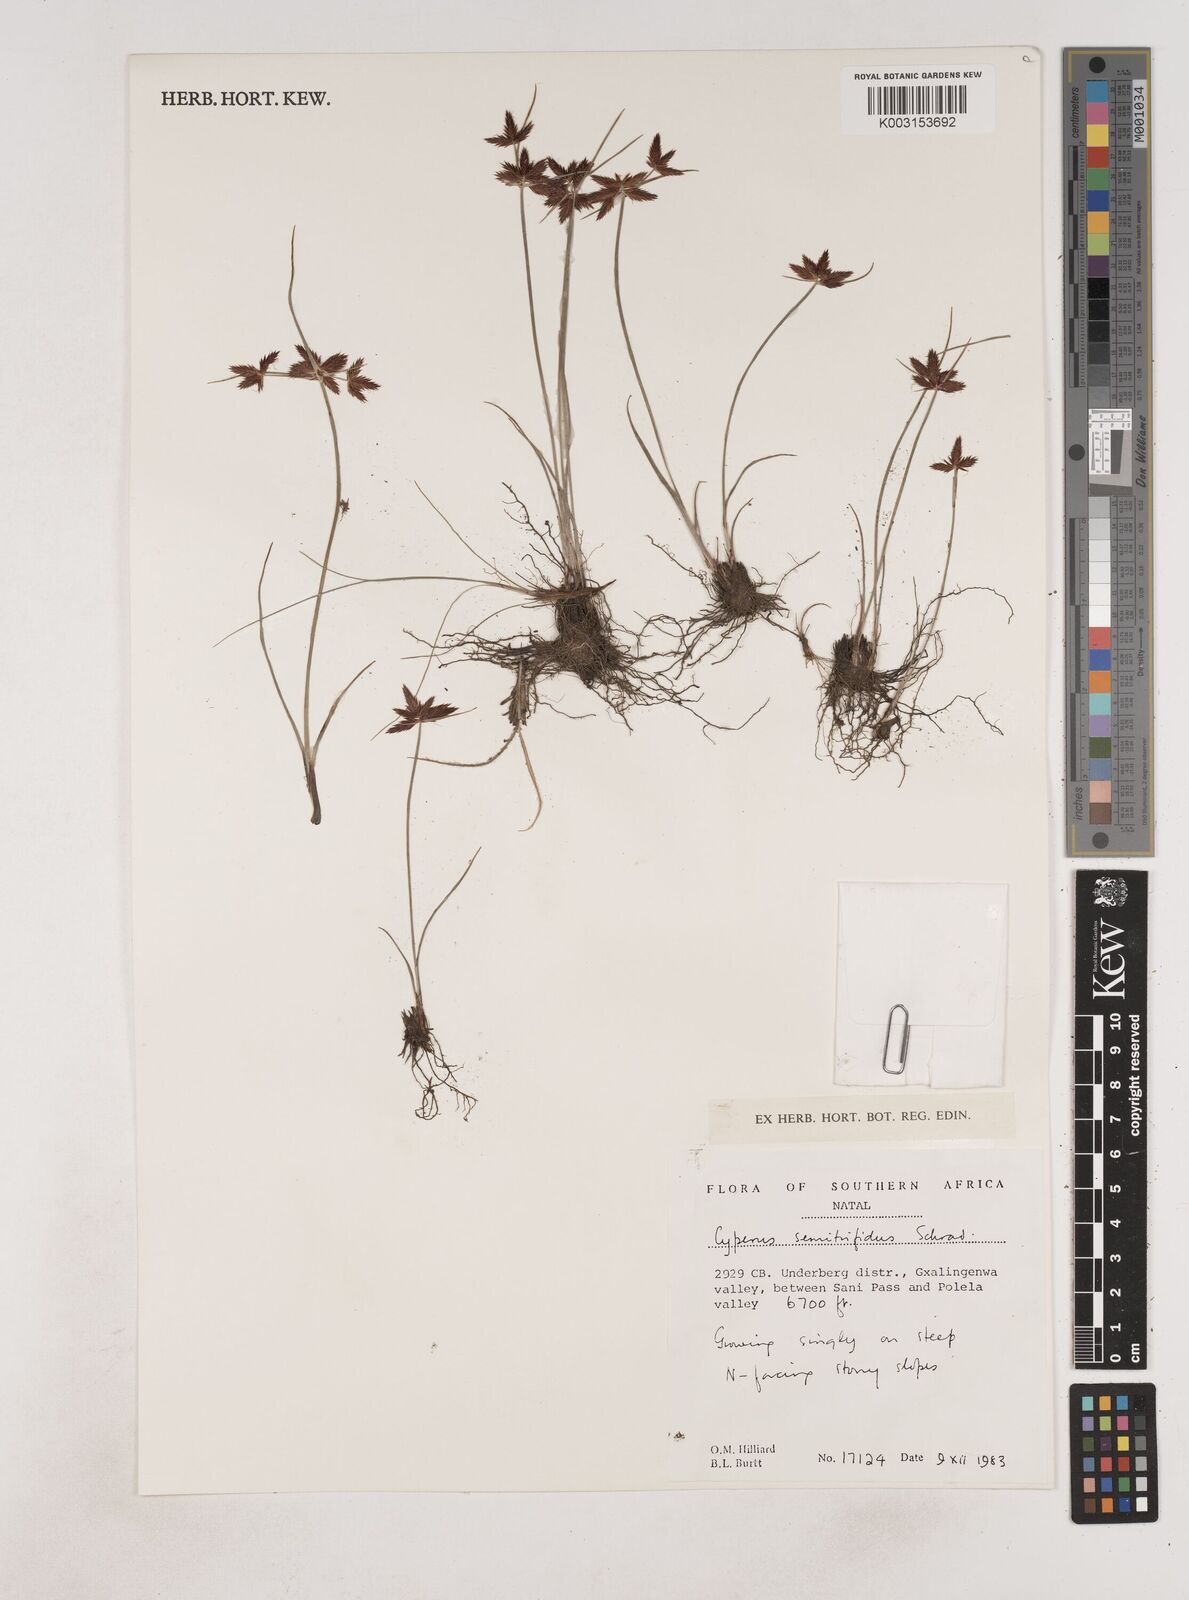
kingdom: Plantae
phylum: Tracheophyta
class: Liliopsida
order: Poales
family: Cyperaceae
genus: Cyperus
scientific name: Cyperus semitrifidus
